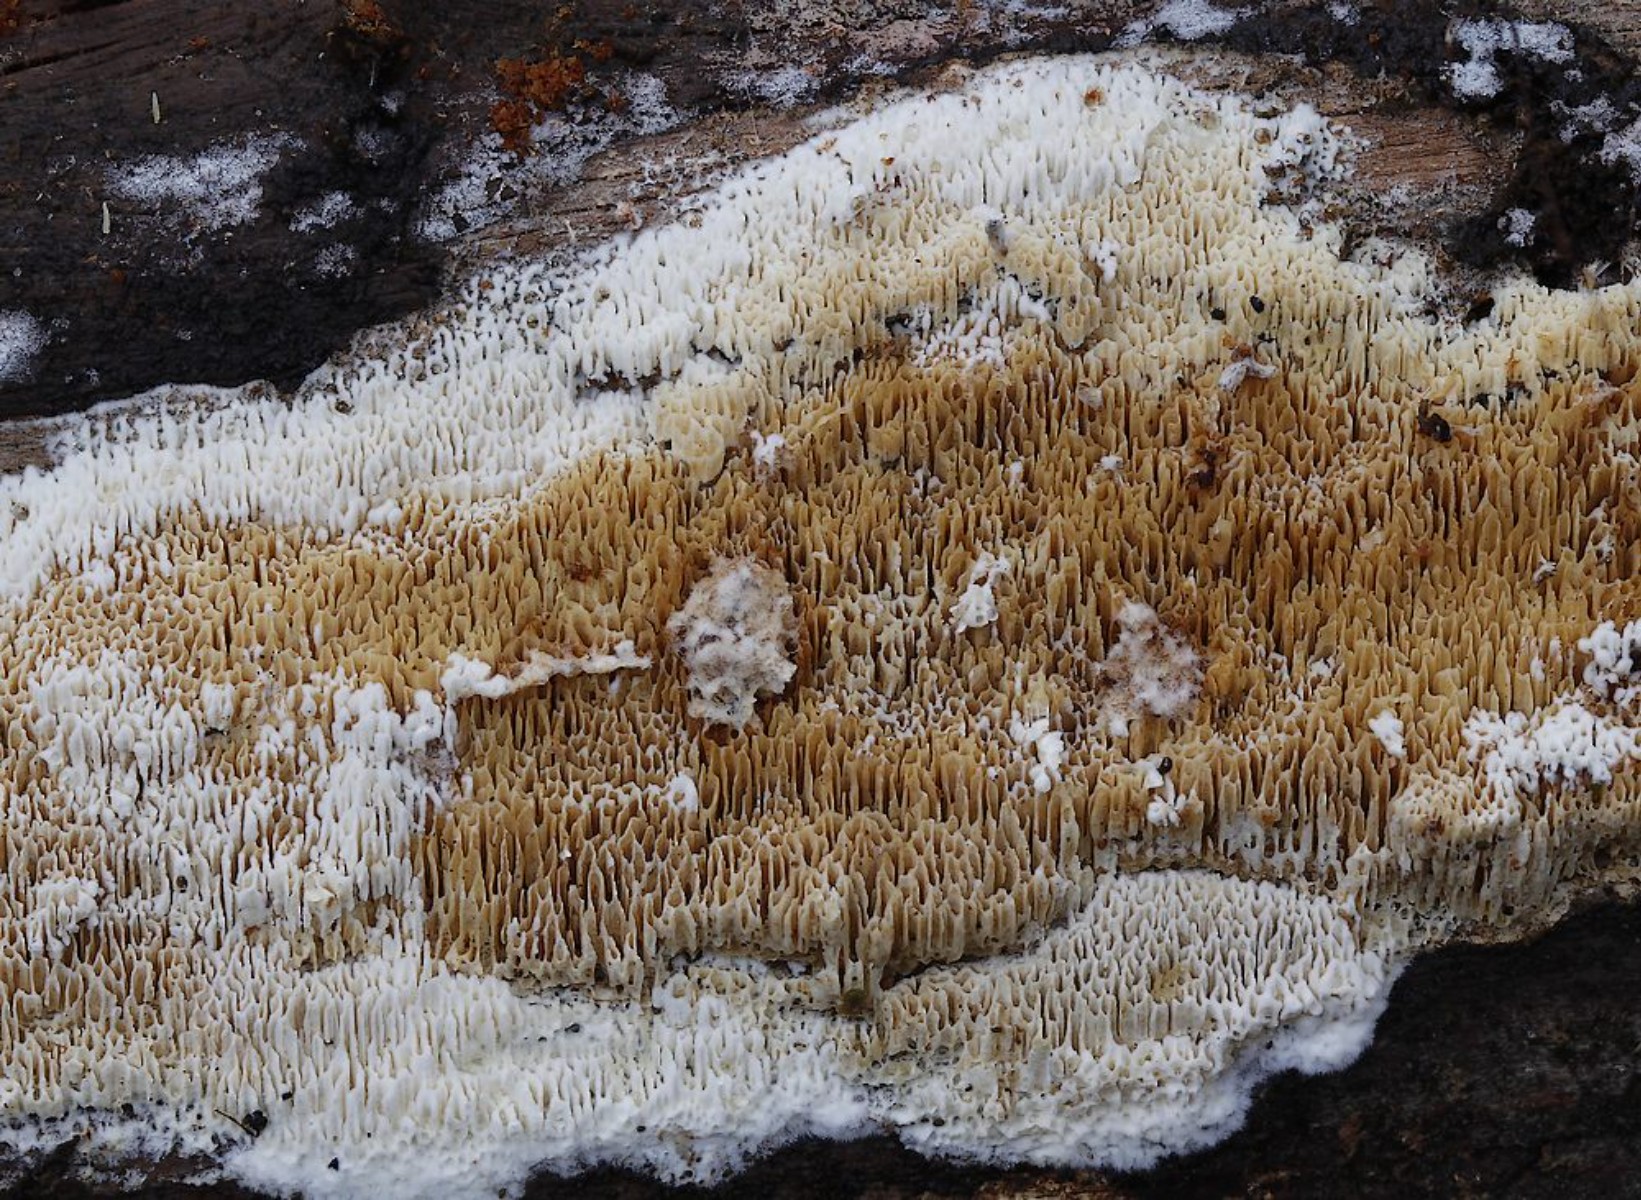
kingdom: Fungi
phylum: Basidiomycota
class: Agaricomycetes
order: Polyporales
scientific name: Polyporales
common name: poresvampordenen
